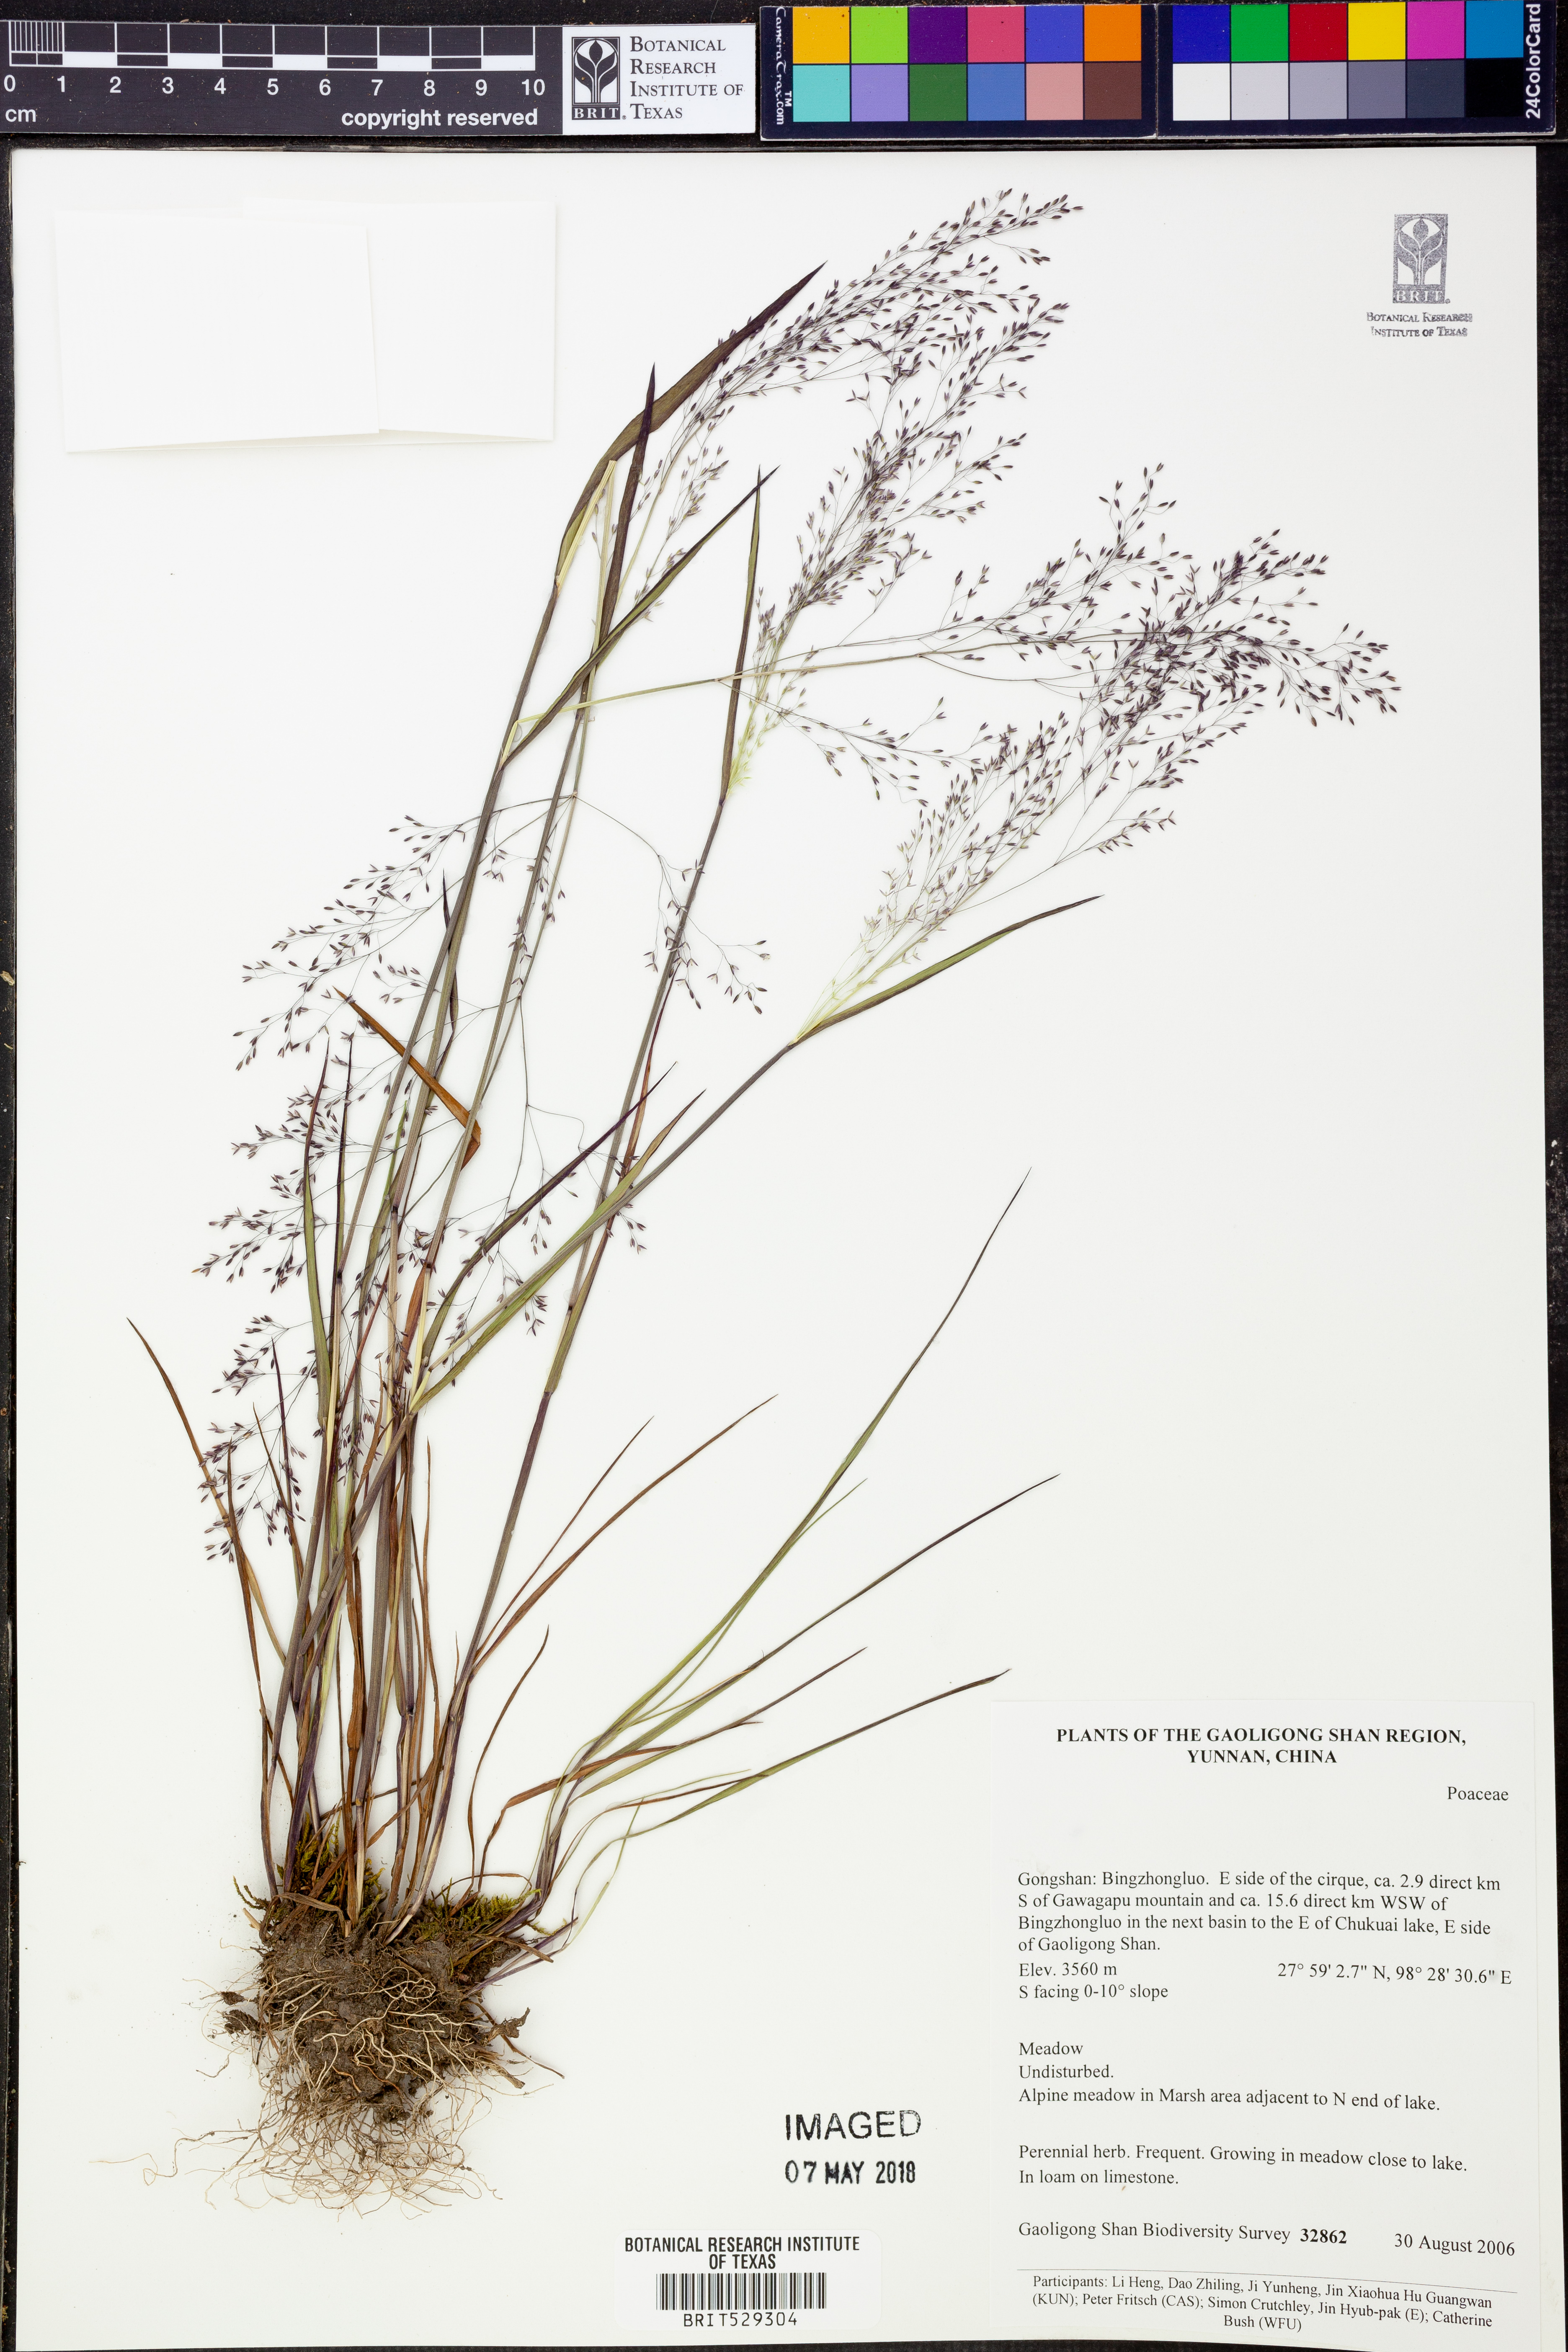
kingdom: Plantae
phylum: Tracheophyta
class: Liliopsida
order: Poales
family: Poaceae
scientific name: Poaceae
